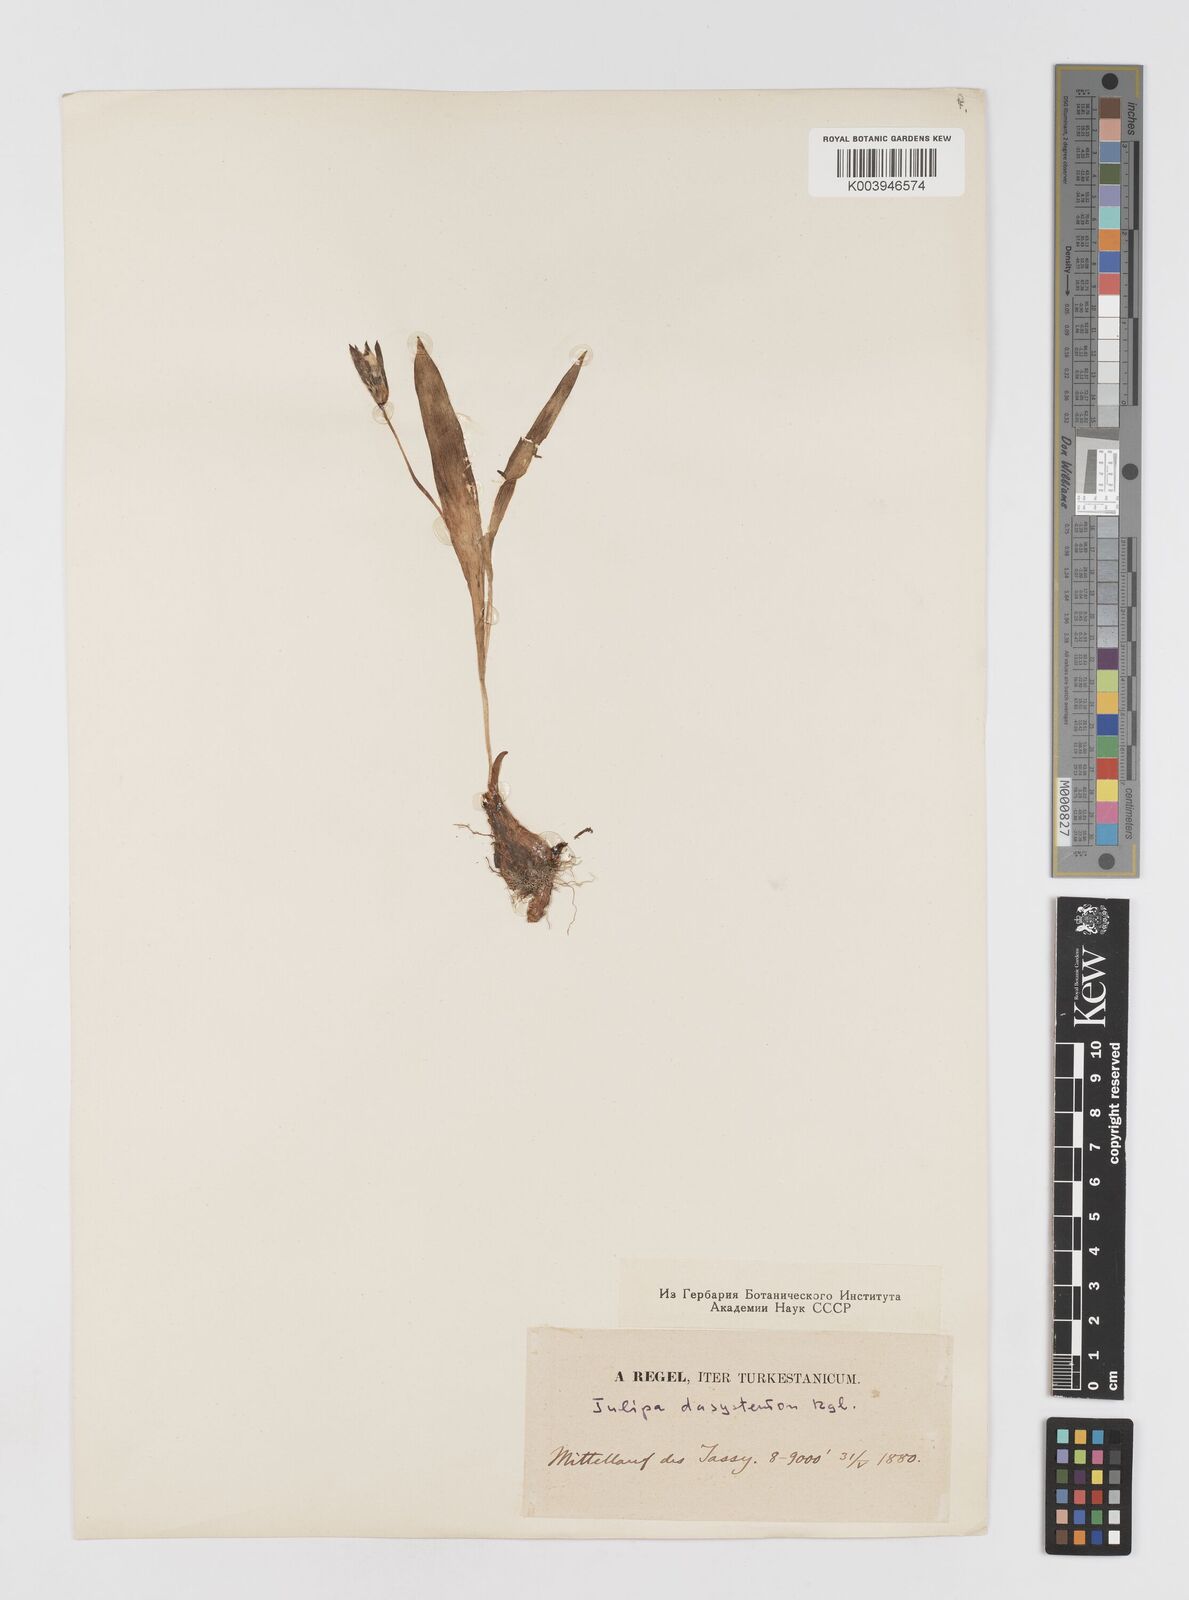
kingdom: Plantae
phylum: Tracheophyta
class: Liliopsida
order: Liliales
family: Liliaceae
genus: Tulipa
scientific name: Tulipa dasystemon
